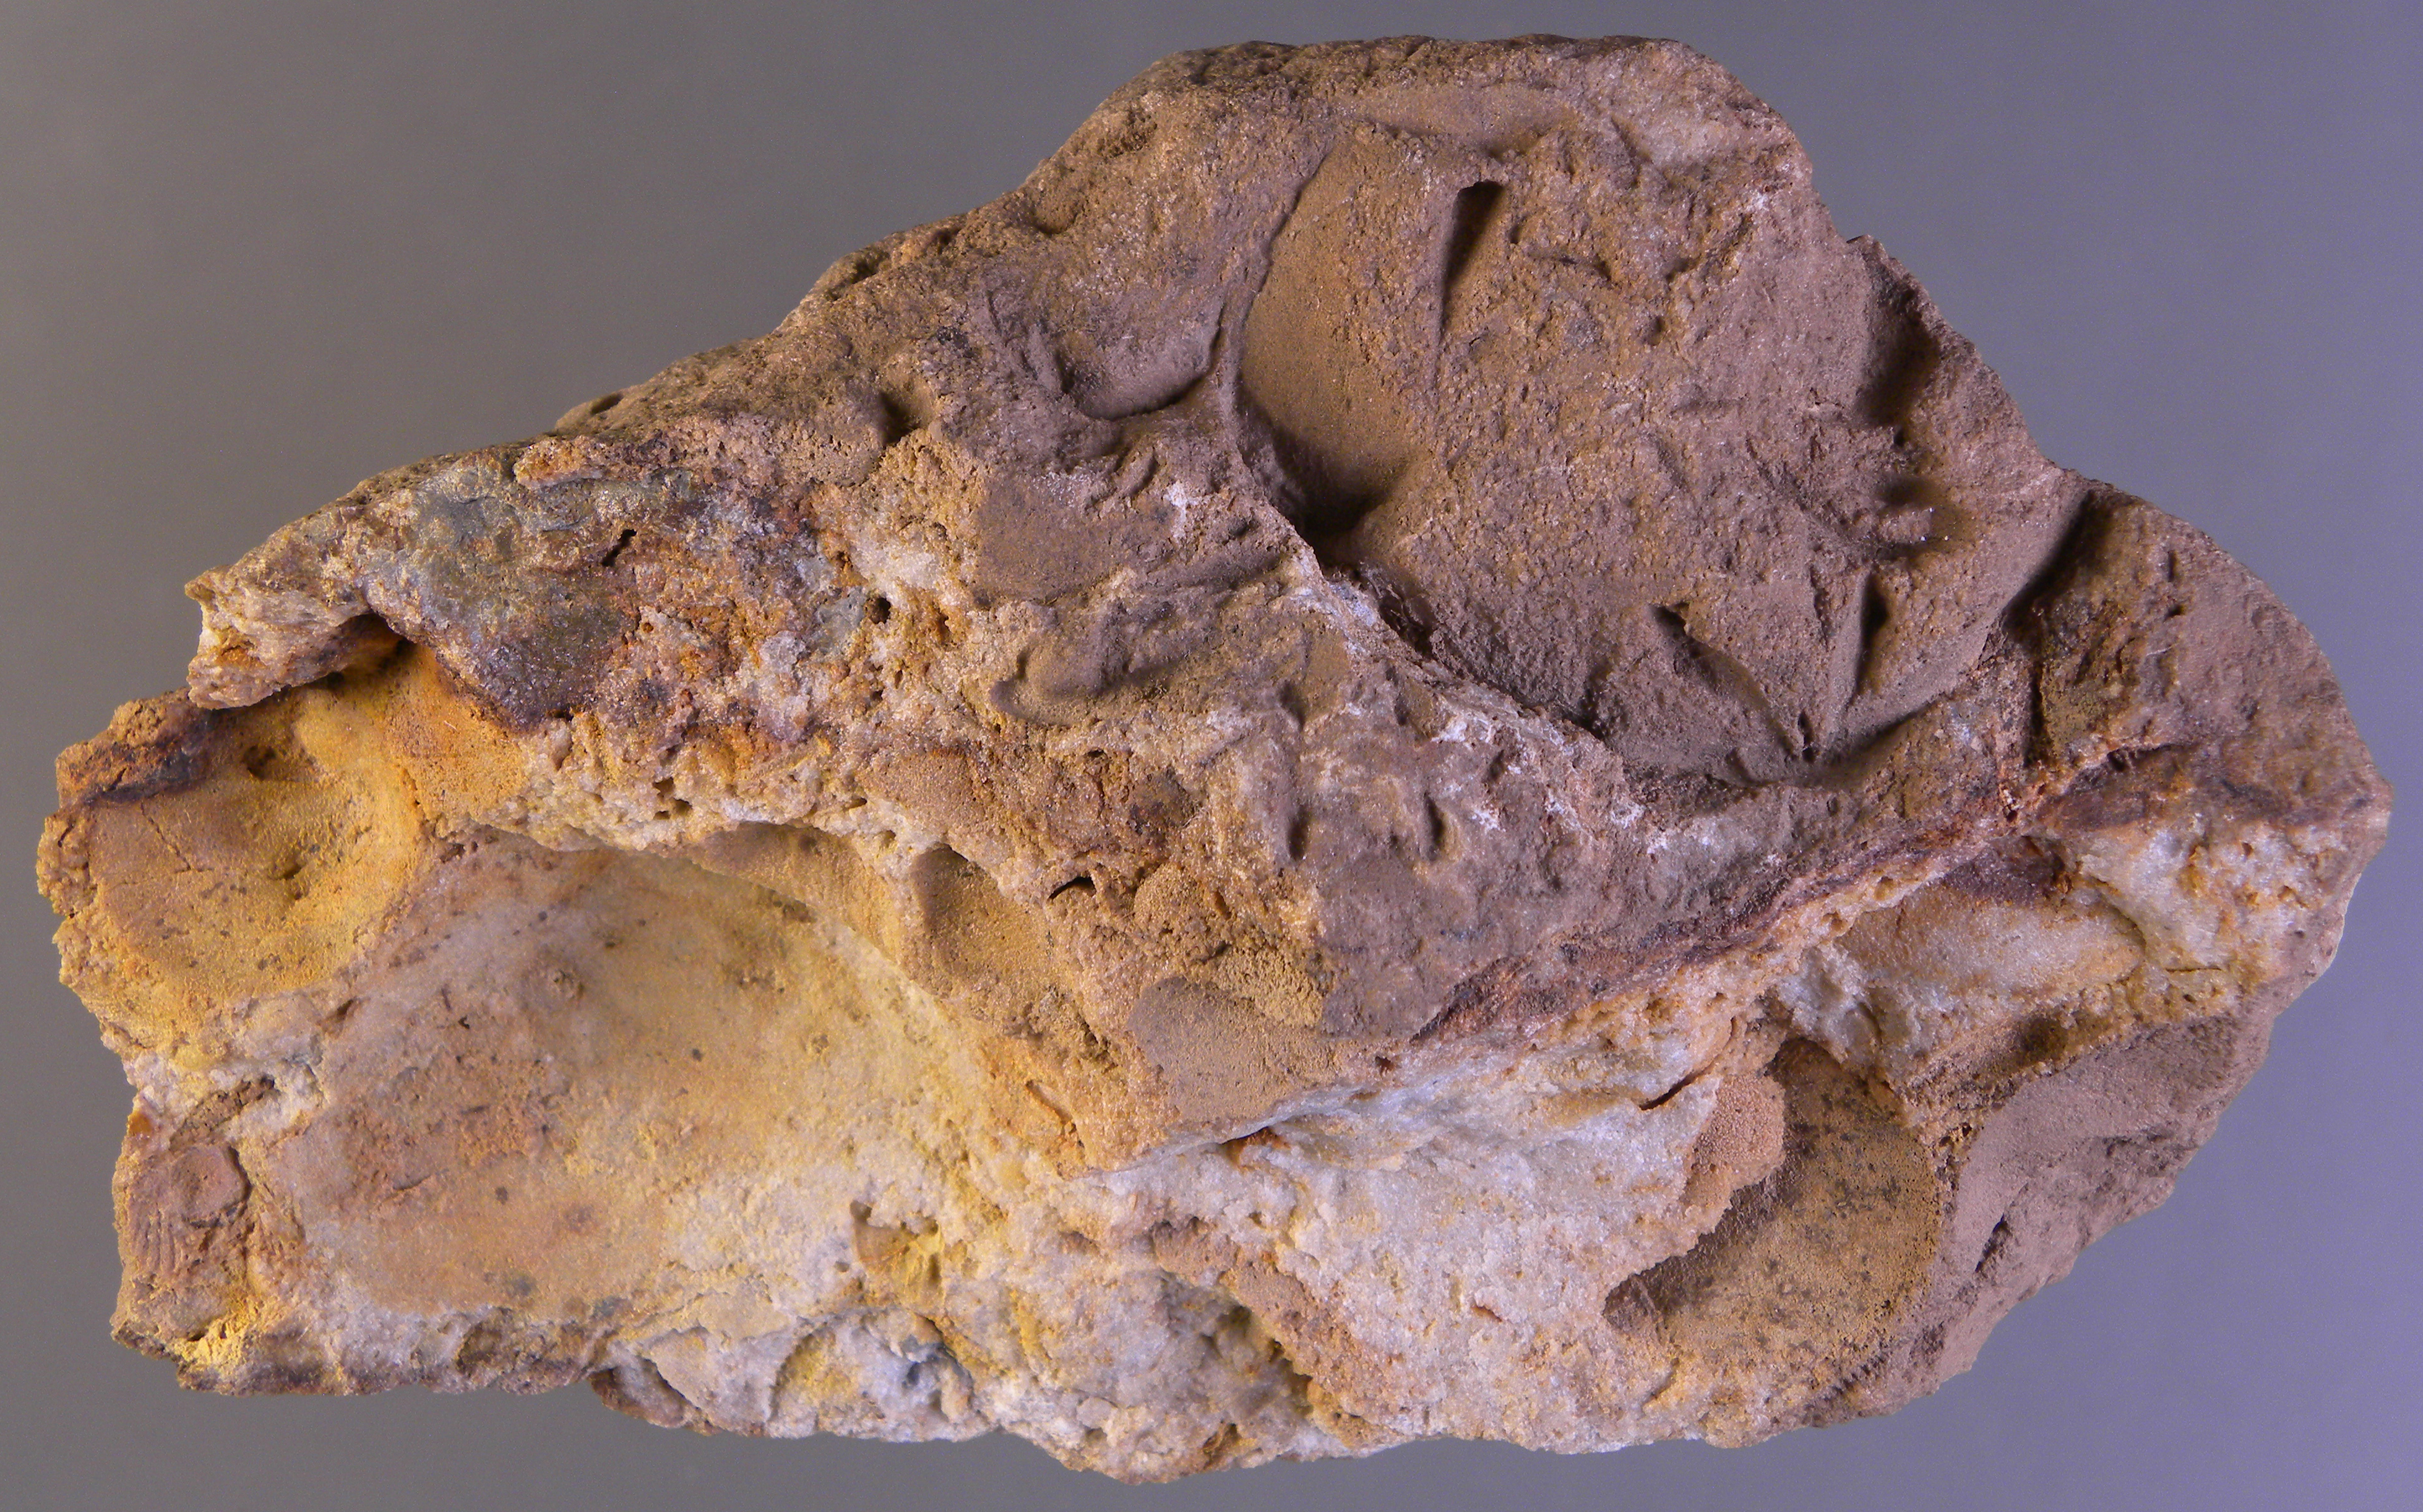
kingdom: Animalia
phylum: Brachiopoda
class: Craniata
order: Craniida
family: Craniidae
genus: Petrocrania
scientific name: Petrocrania
